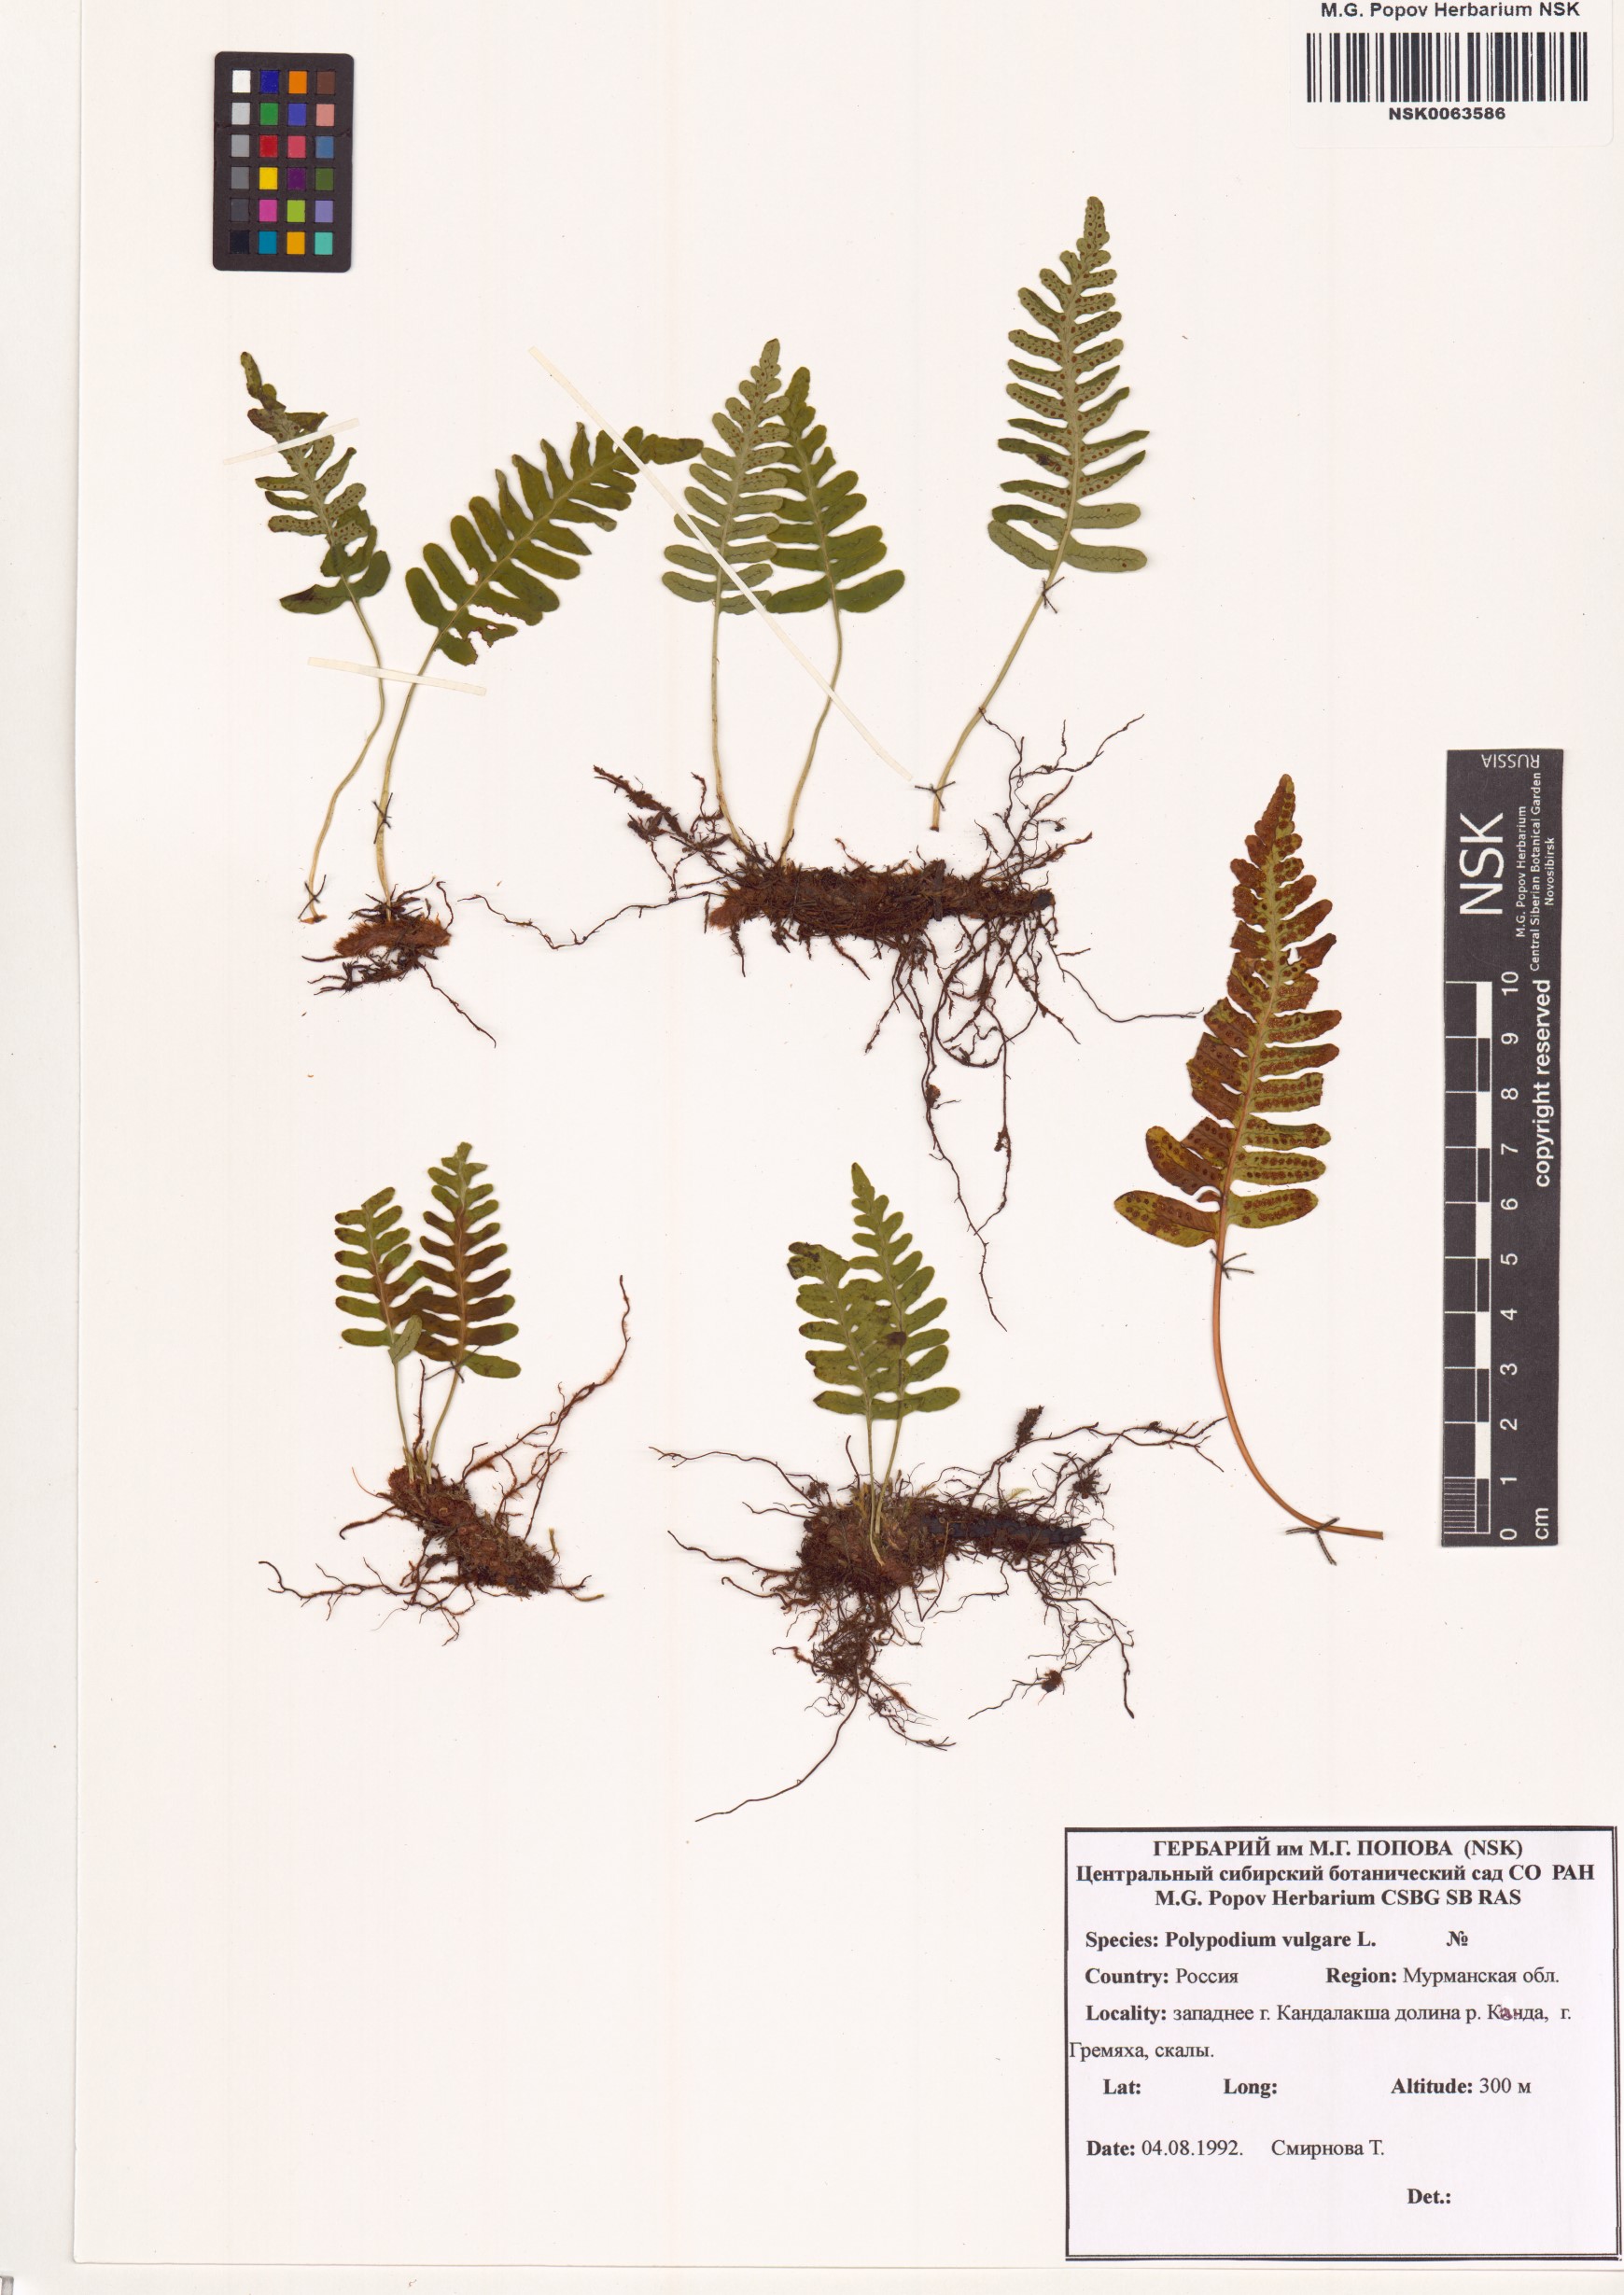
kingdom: Plantae
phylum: Tracheophyta
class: Polypodiopsida
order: Polypodiales
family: Polypodiaceae
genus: Polypodium
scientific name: Polypodium vulgare
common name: Common polypody
